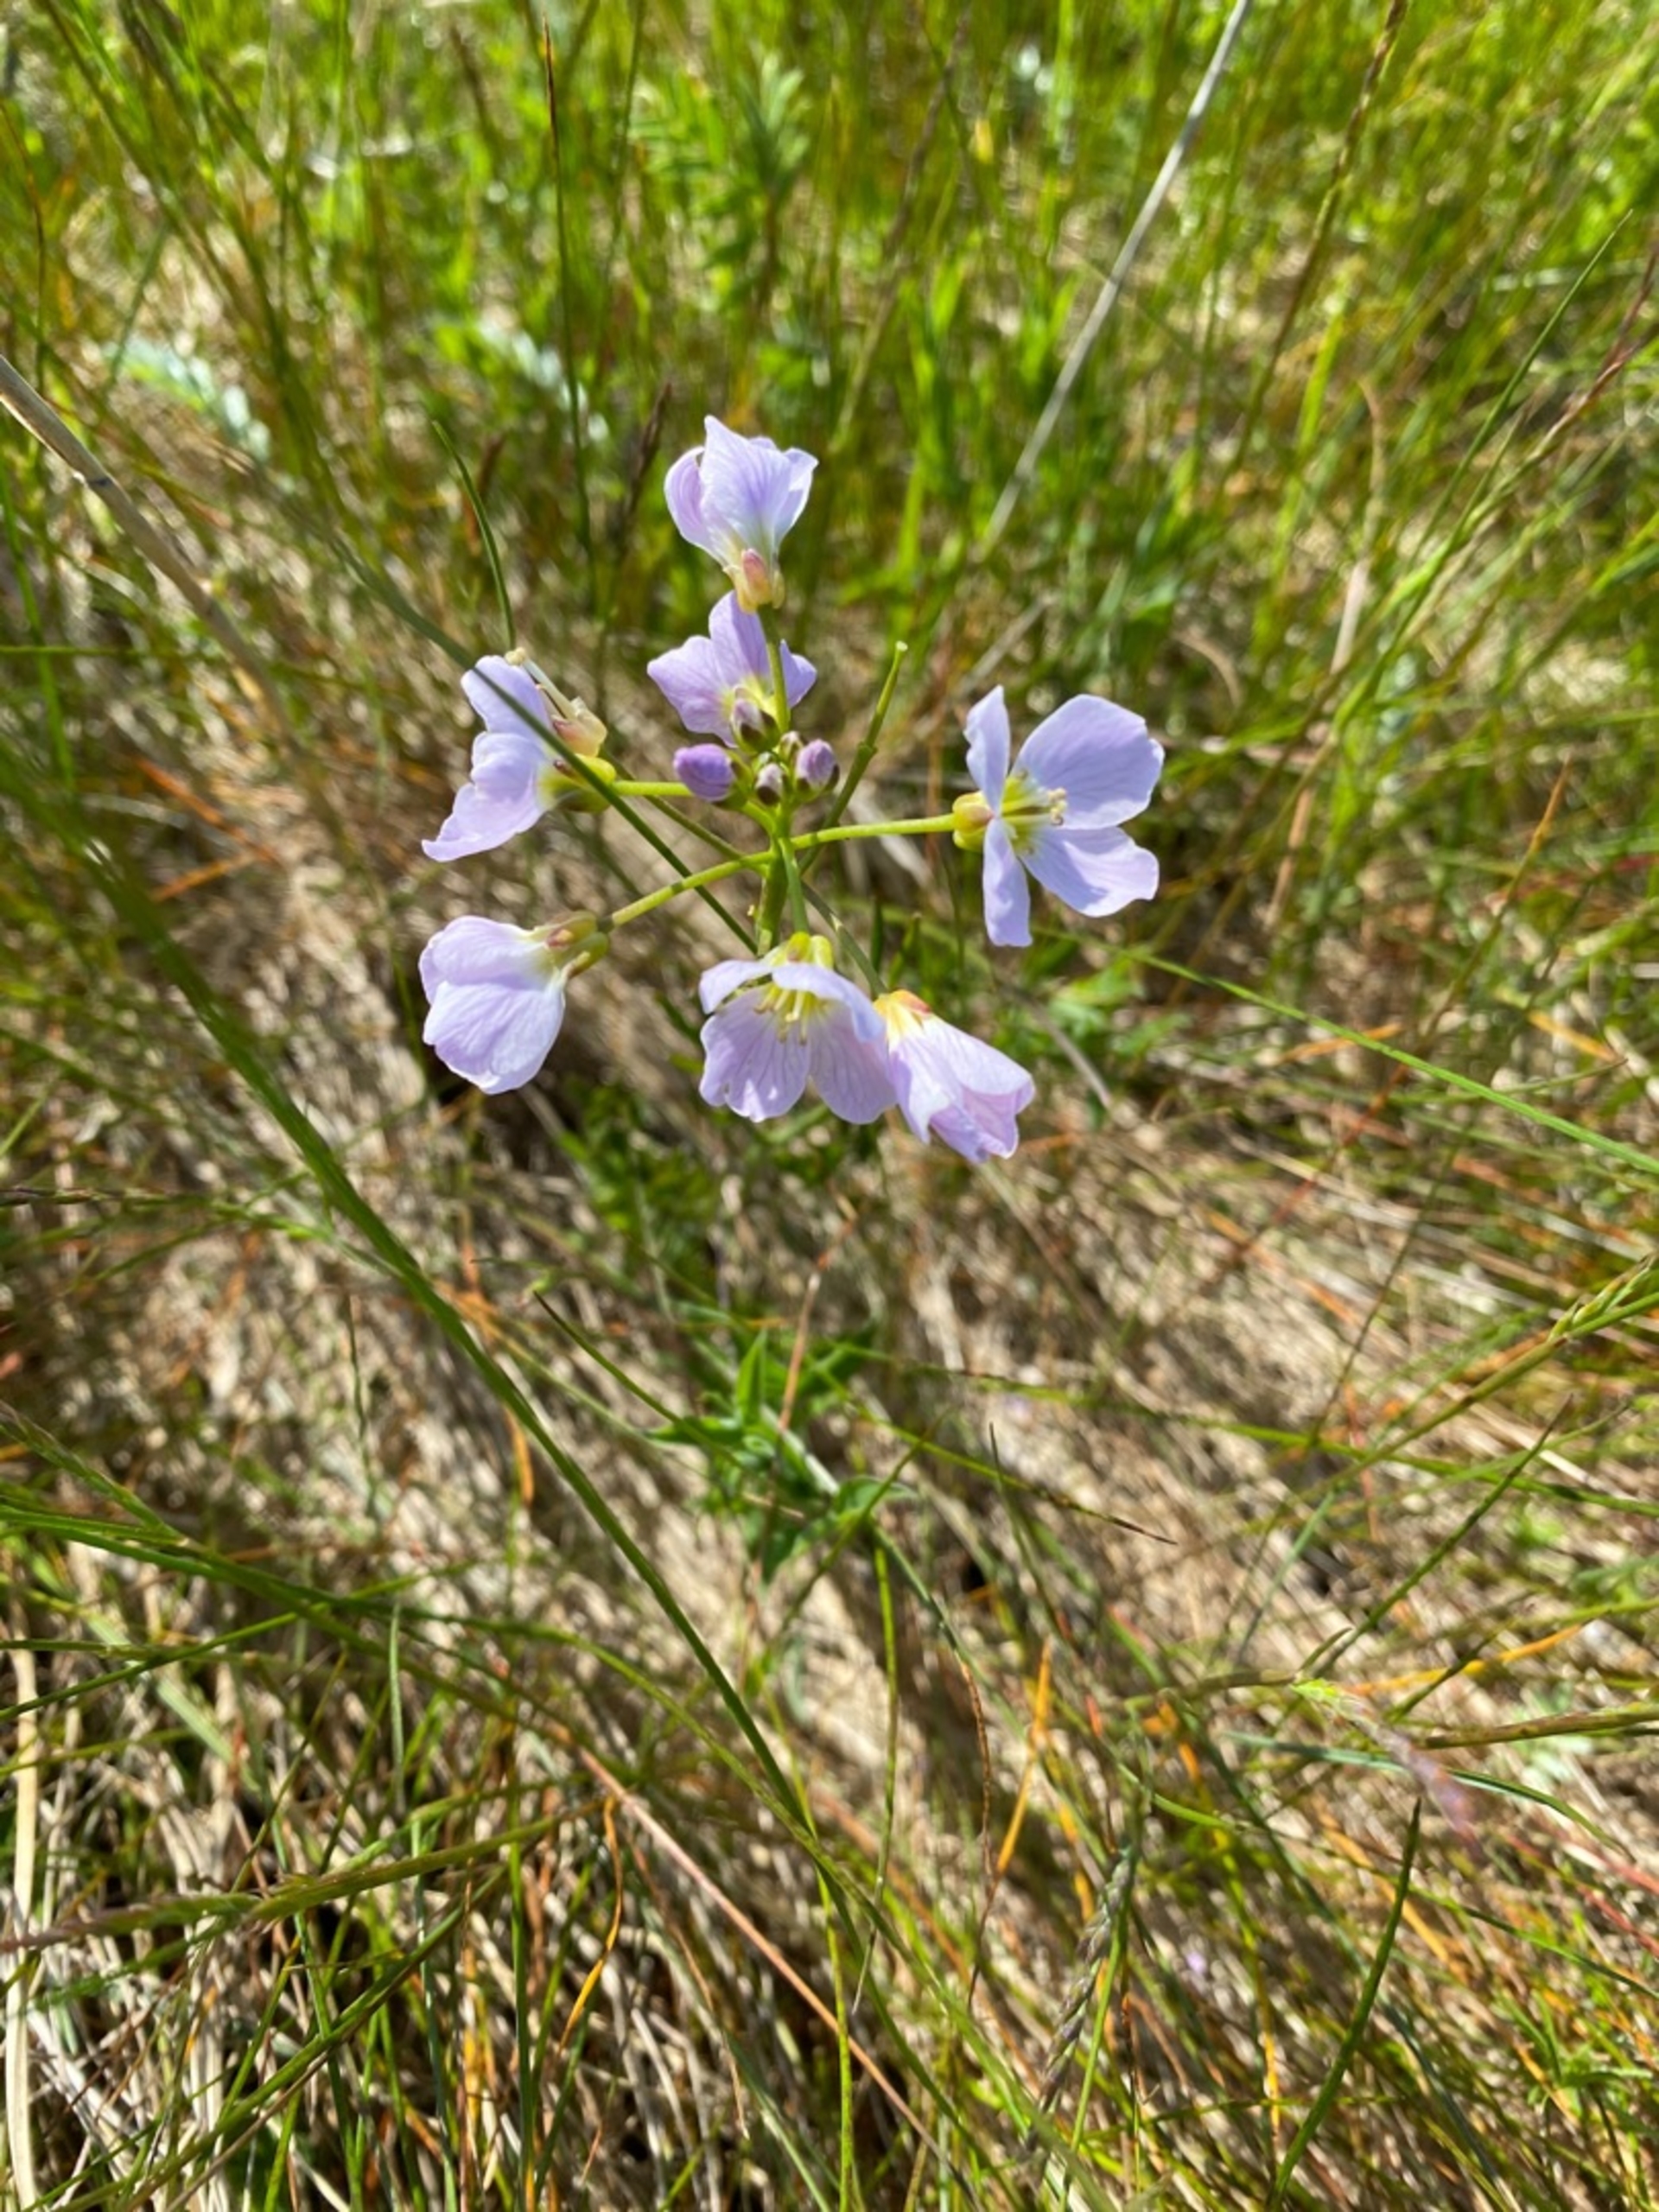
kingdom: Plantae
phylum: Tracheophyta
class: Magnoliopsida
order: Brassicales
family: Brassicaceae
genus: Cardamine
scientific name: Cardamine pratensis
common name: Engkarse
